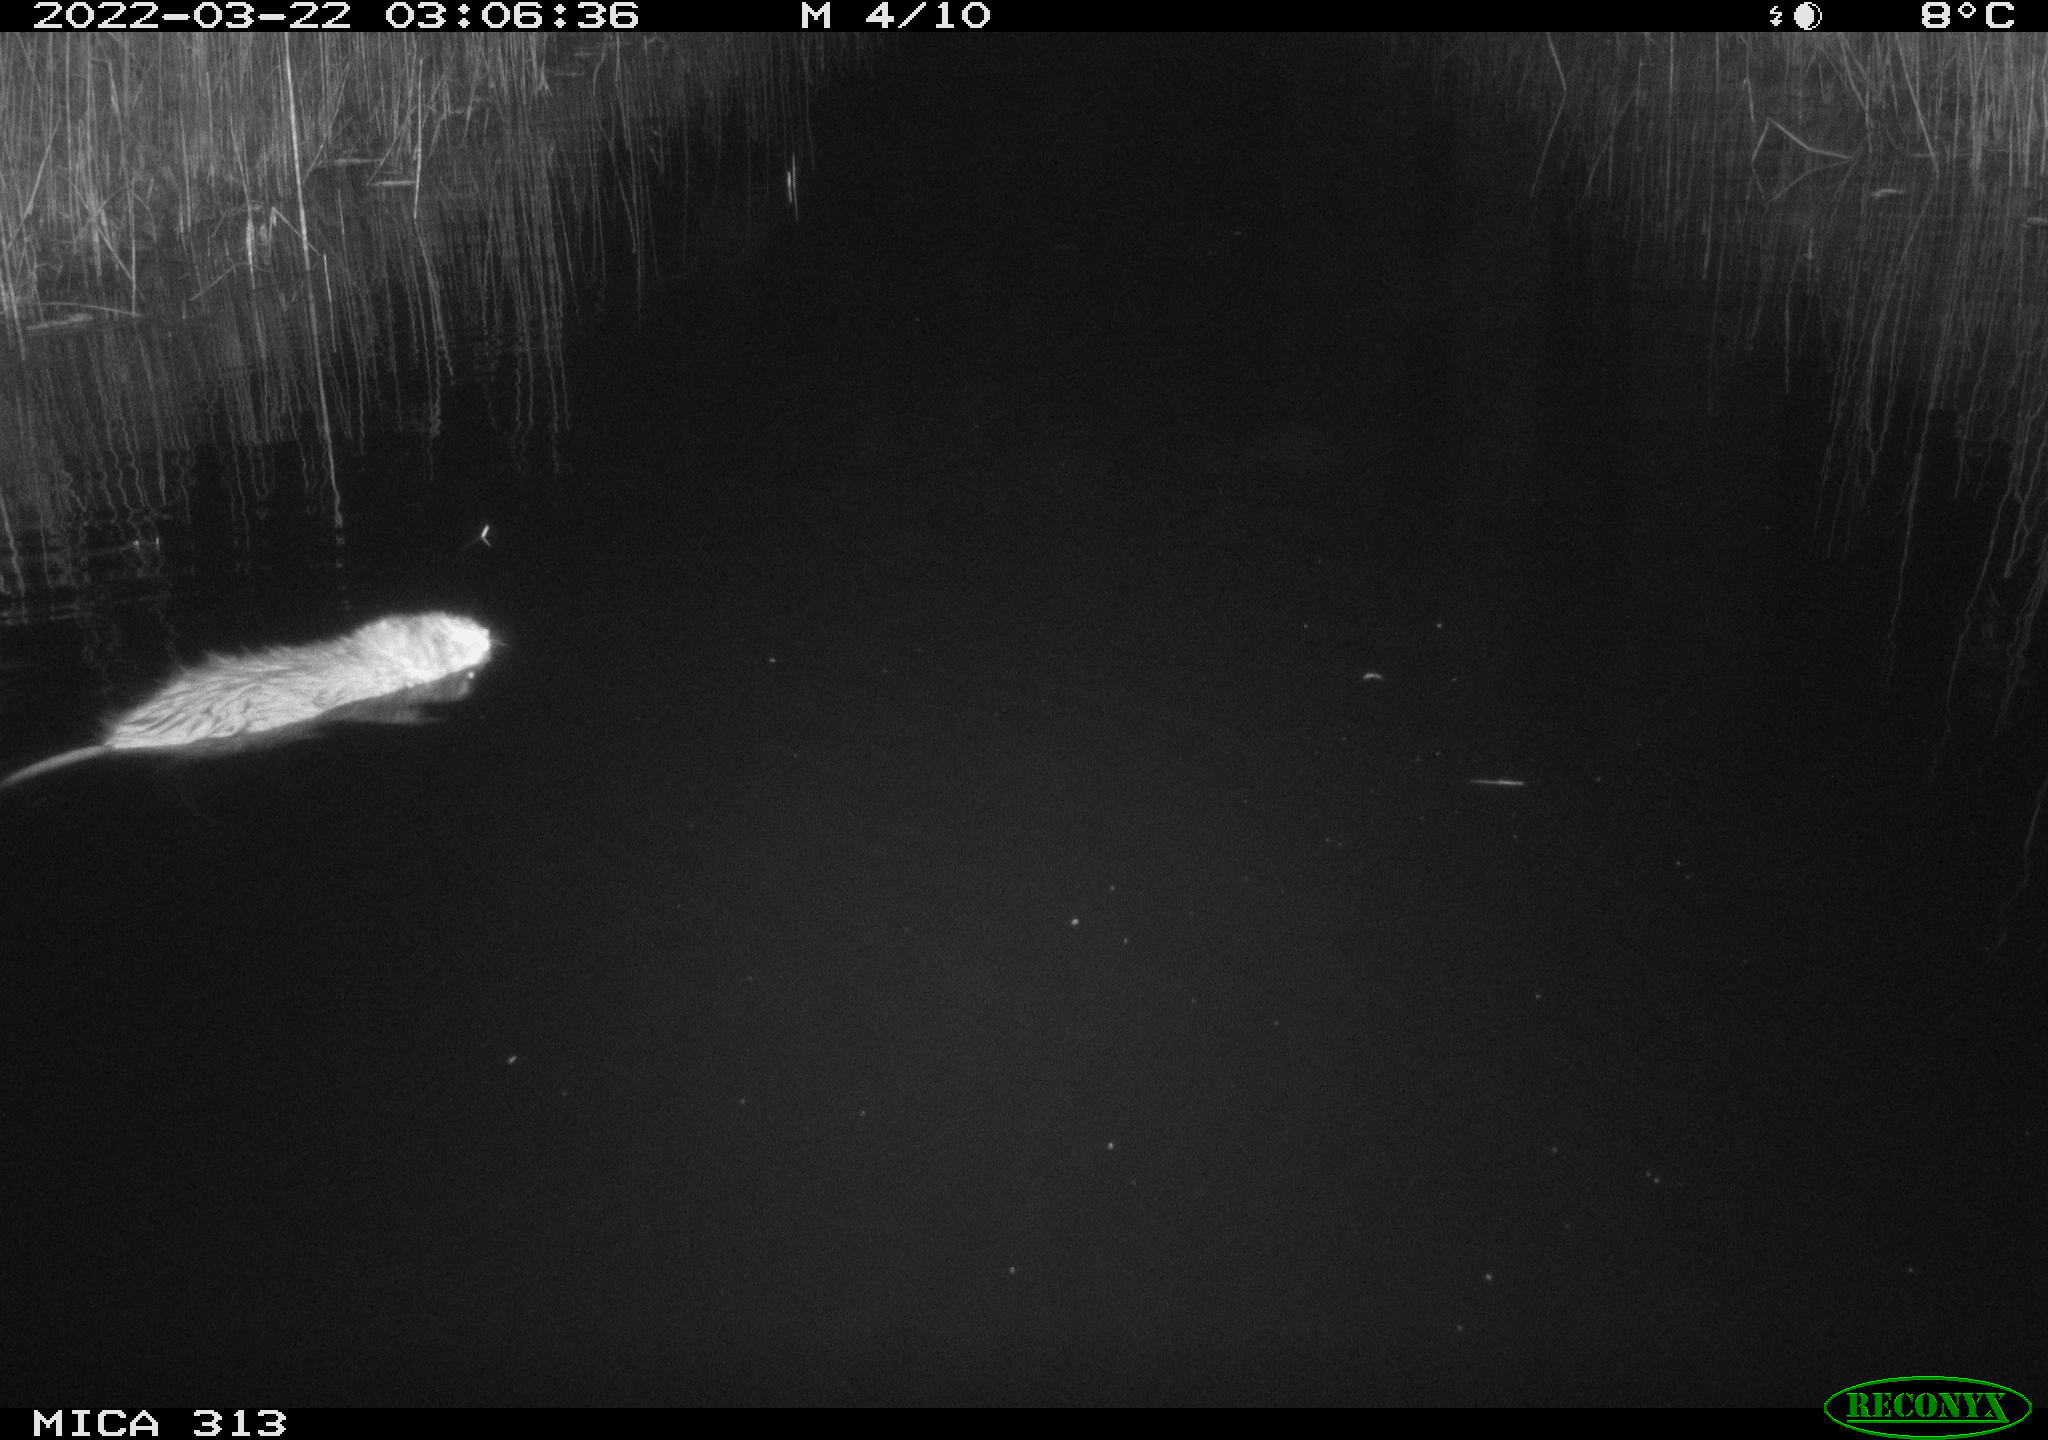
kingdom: Animalia
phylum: Chordata
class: Mammalia
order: Rodentia
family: Cricetidae
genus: Ondatra
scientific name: Ondatra zibethicus
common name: Muskrat
